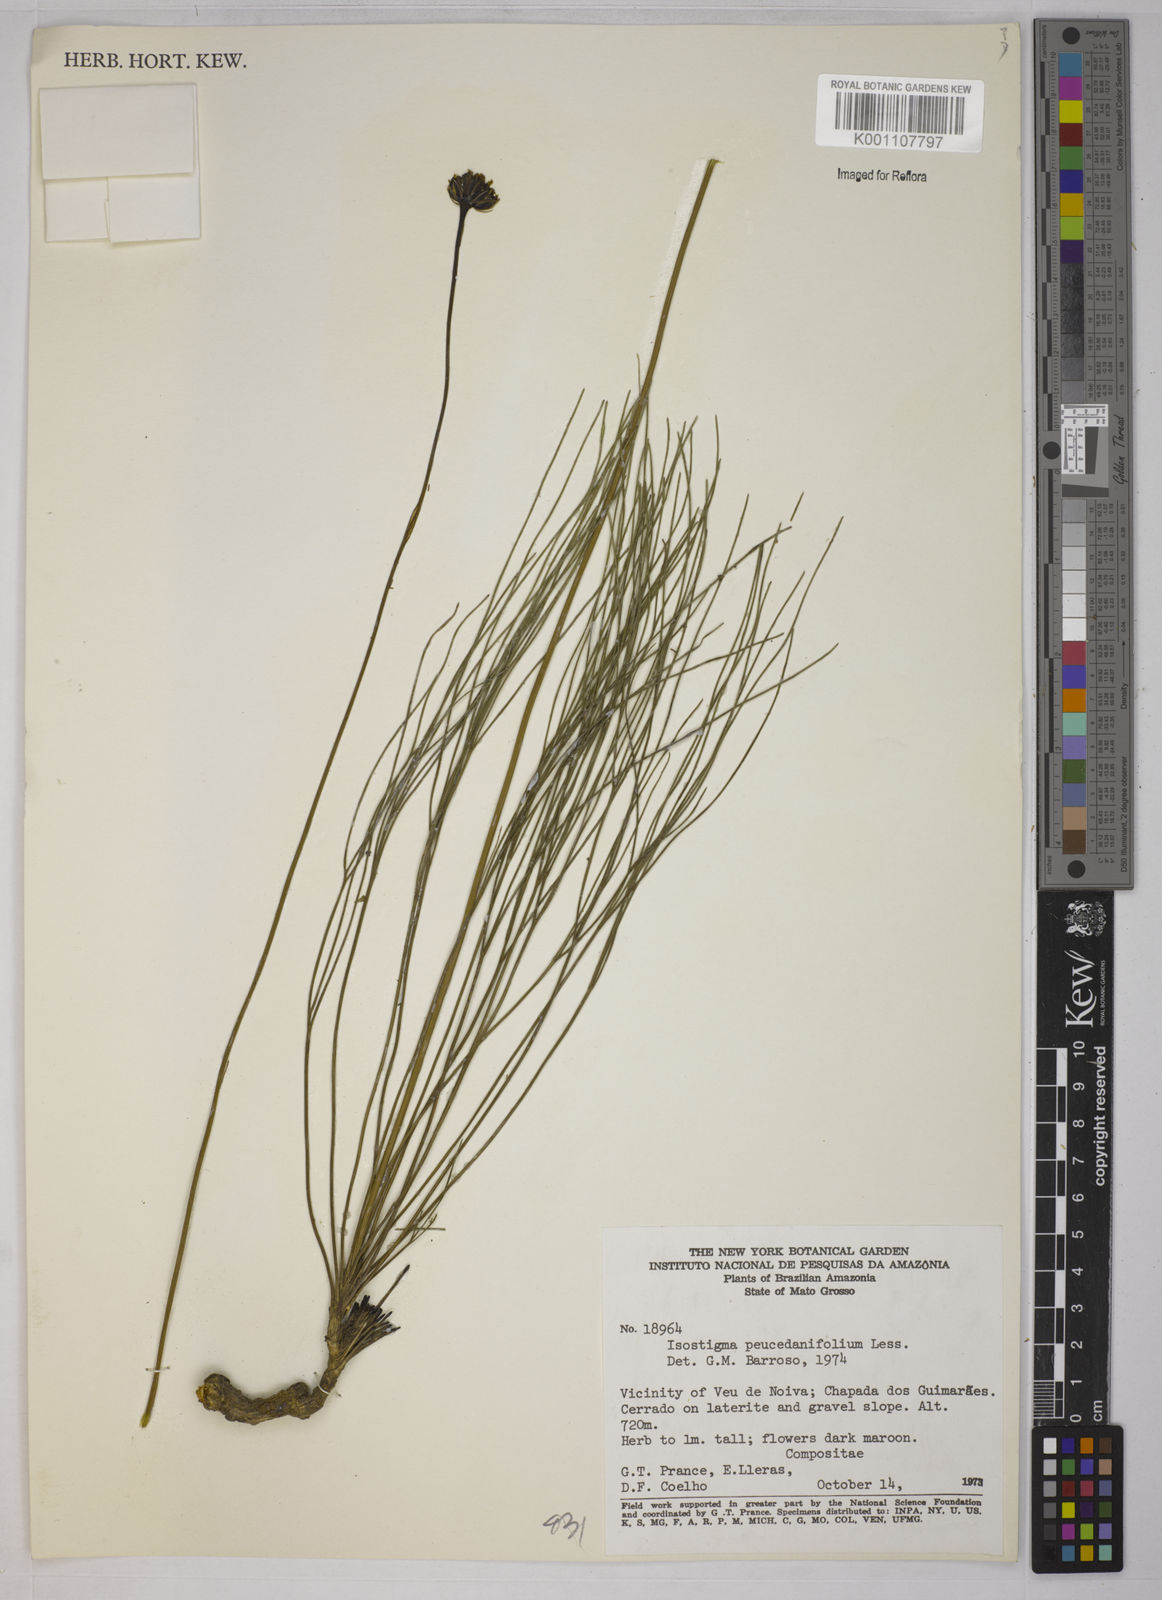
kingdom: Plantae
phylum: Tracheophyta
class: Magnoliopsida
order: Asterales
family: Asteraceae
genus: Isostigma
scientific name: Isostigma
